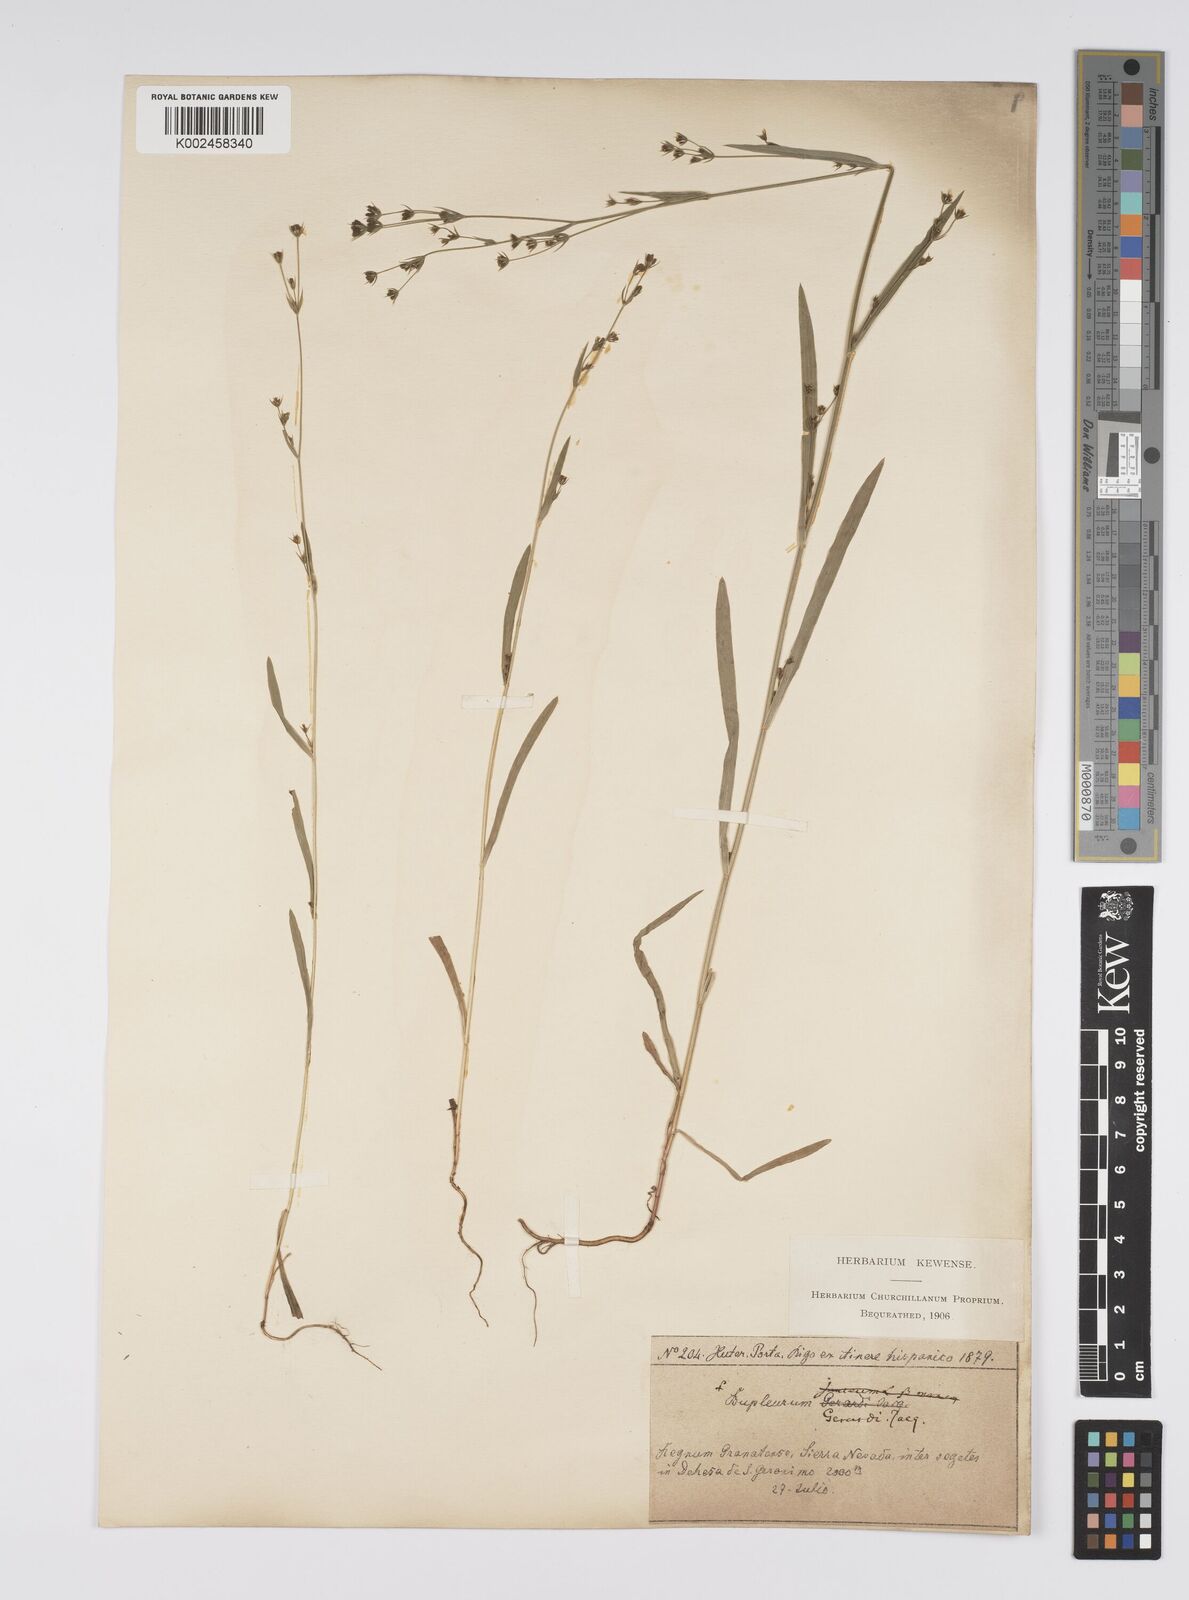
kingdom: Plantae
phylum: Tracheophyta
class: Magnoliopsida
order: Apiales
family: Apiaceae
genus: Bupleurum
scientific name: Bupleurum gerardi
